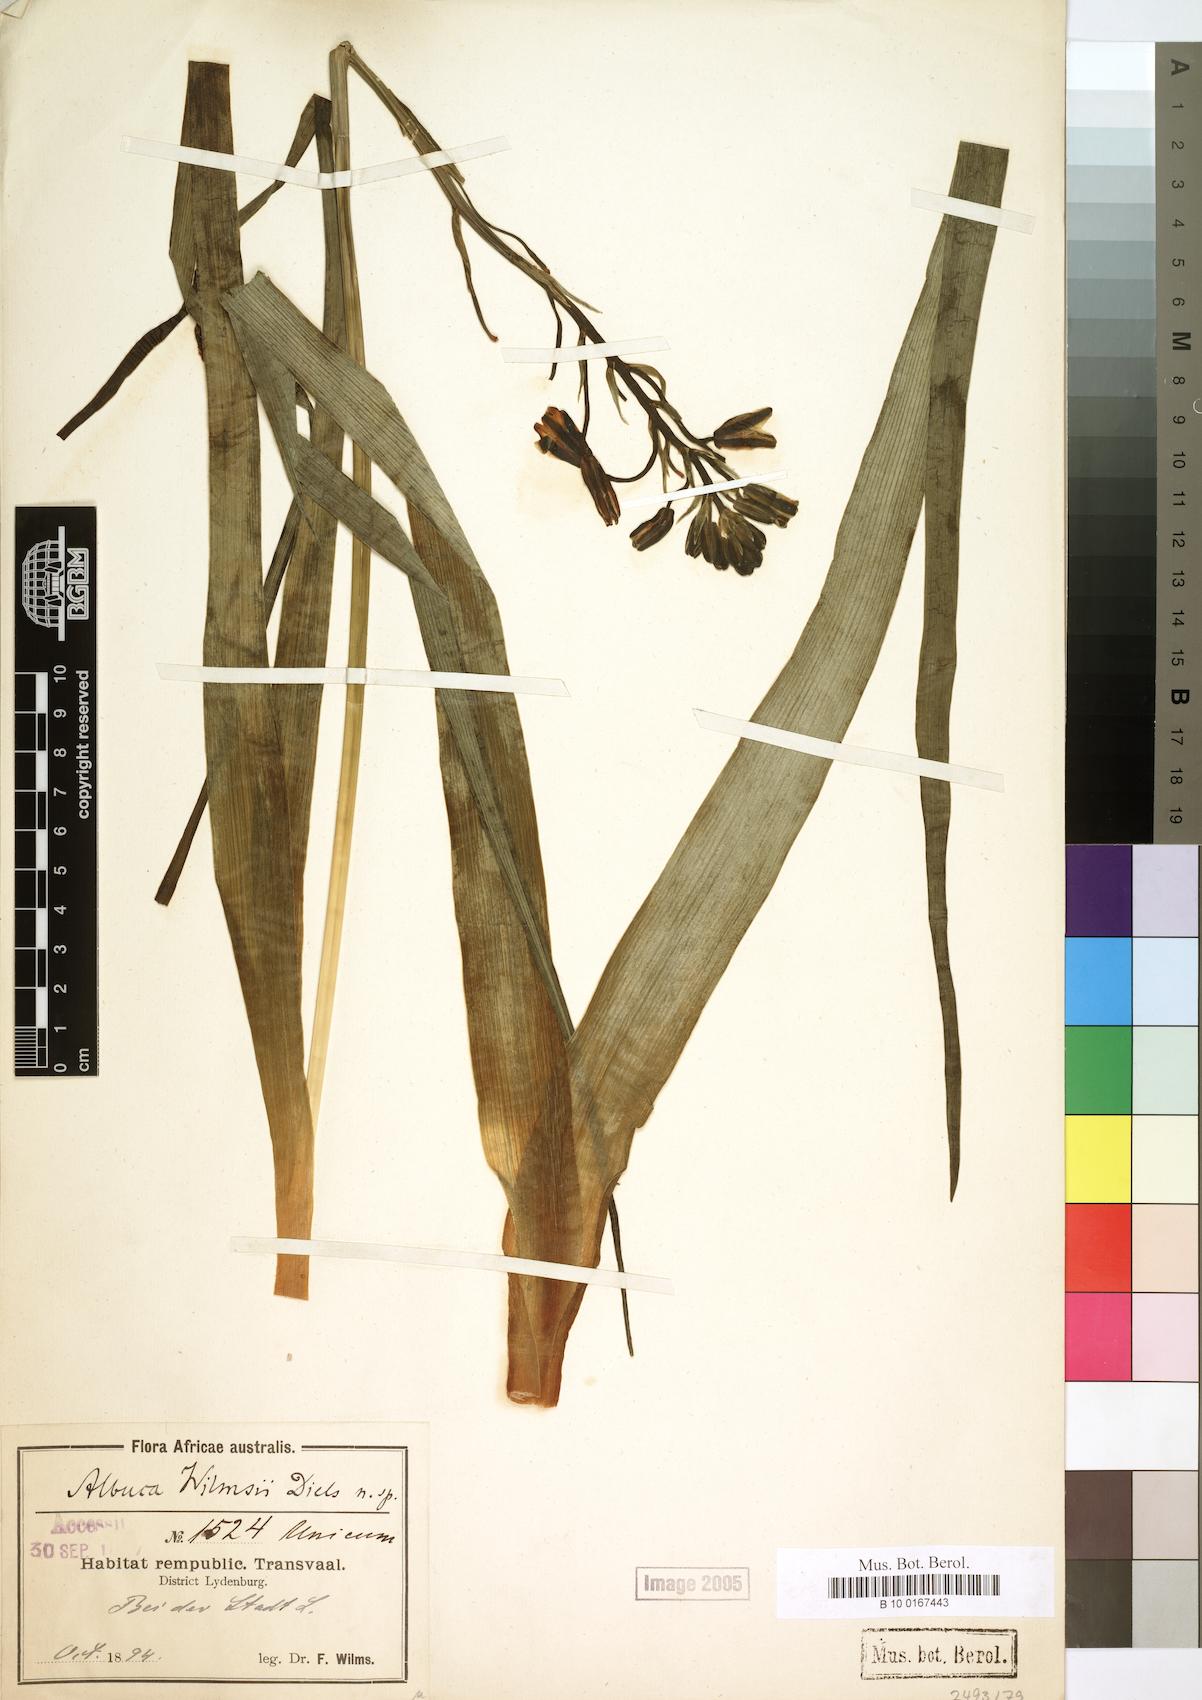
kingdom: Plantae
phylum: Tracheophyta
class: Liliopsida
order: Asparagales
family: Asparagaceae
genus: Albuca
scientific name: Albuca
